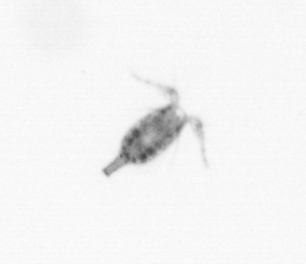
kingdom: Animalia
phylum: Arthropoda
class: Copepoda
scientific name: Copepoda
